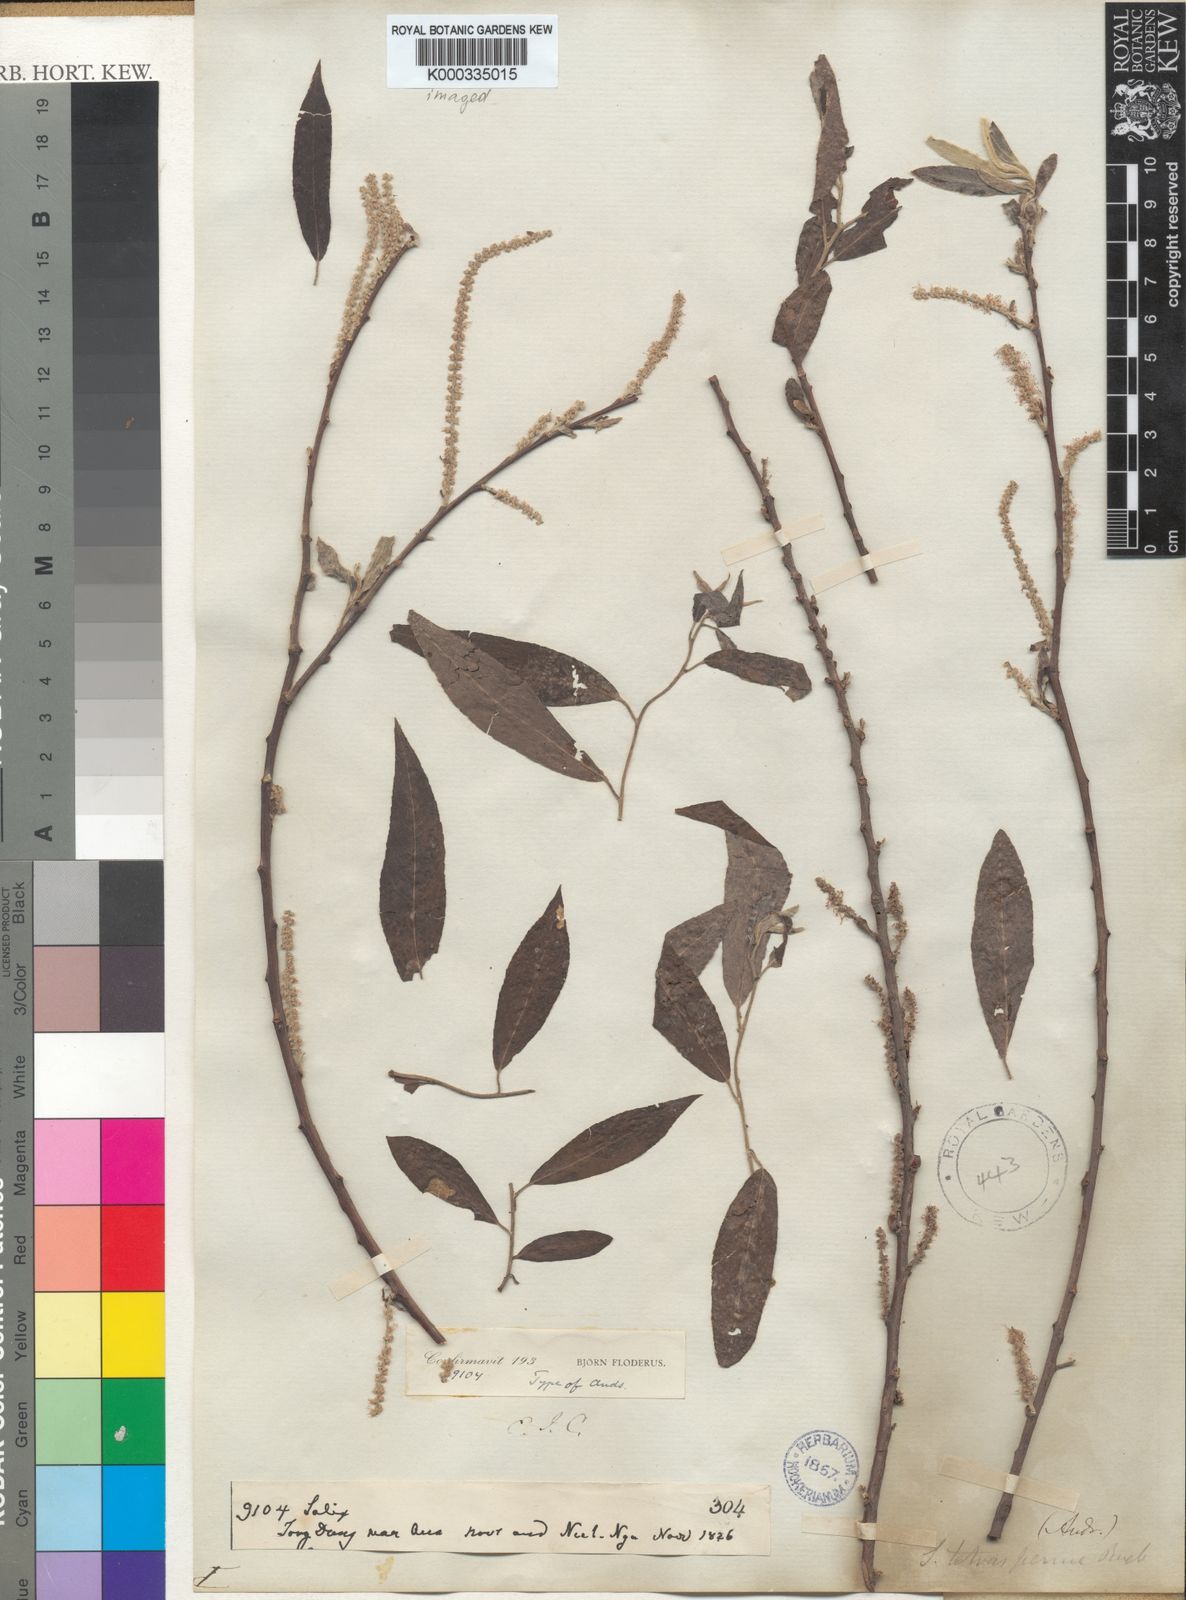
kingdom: Plantae
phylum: Tracheophyta
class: Magnoliopsida
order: Malpighiales
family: Salicaceae
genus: Salix
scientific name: Salix tetrasperma
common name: Indian willow
